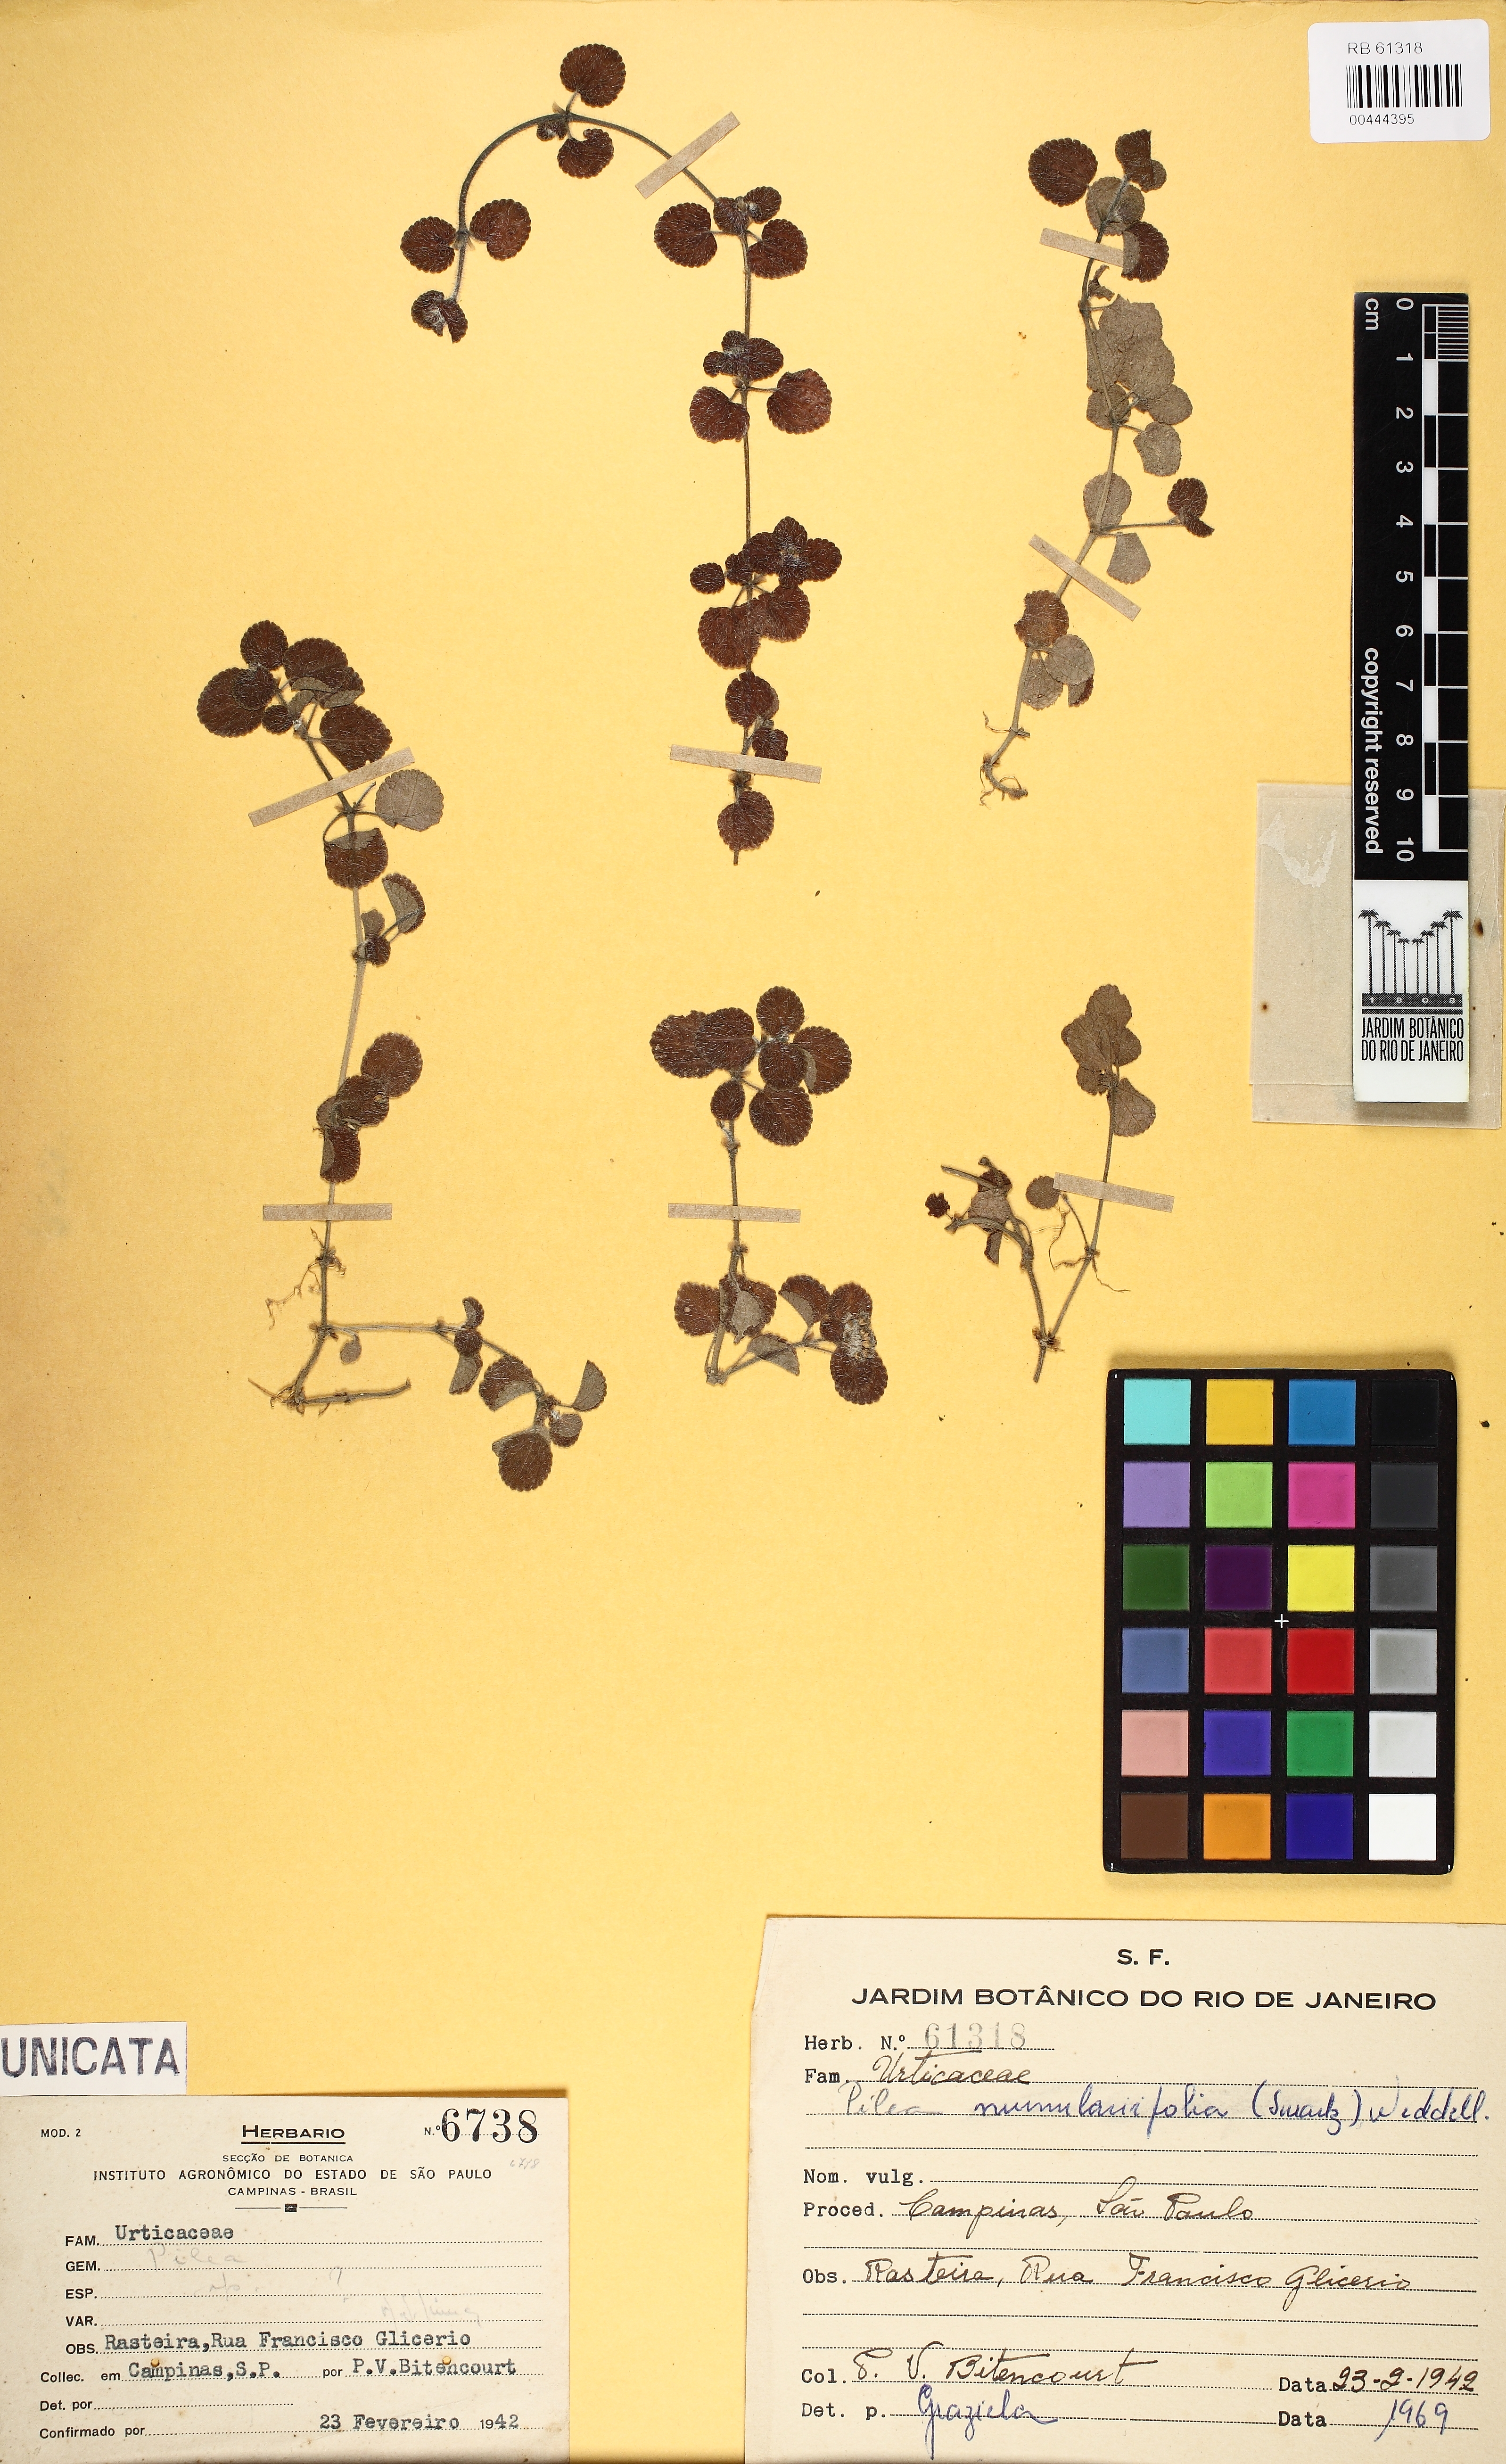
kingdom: Plantae
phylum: Tracheophyta
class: Magnoliopsida
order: Rosales
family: Urticaceae
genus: Pilea
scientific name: Pilea nummulariifolia
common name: Creeping-charlie
